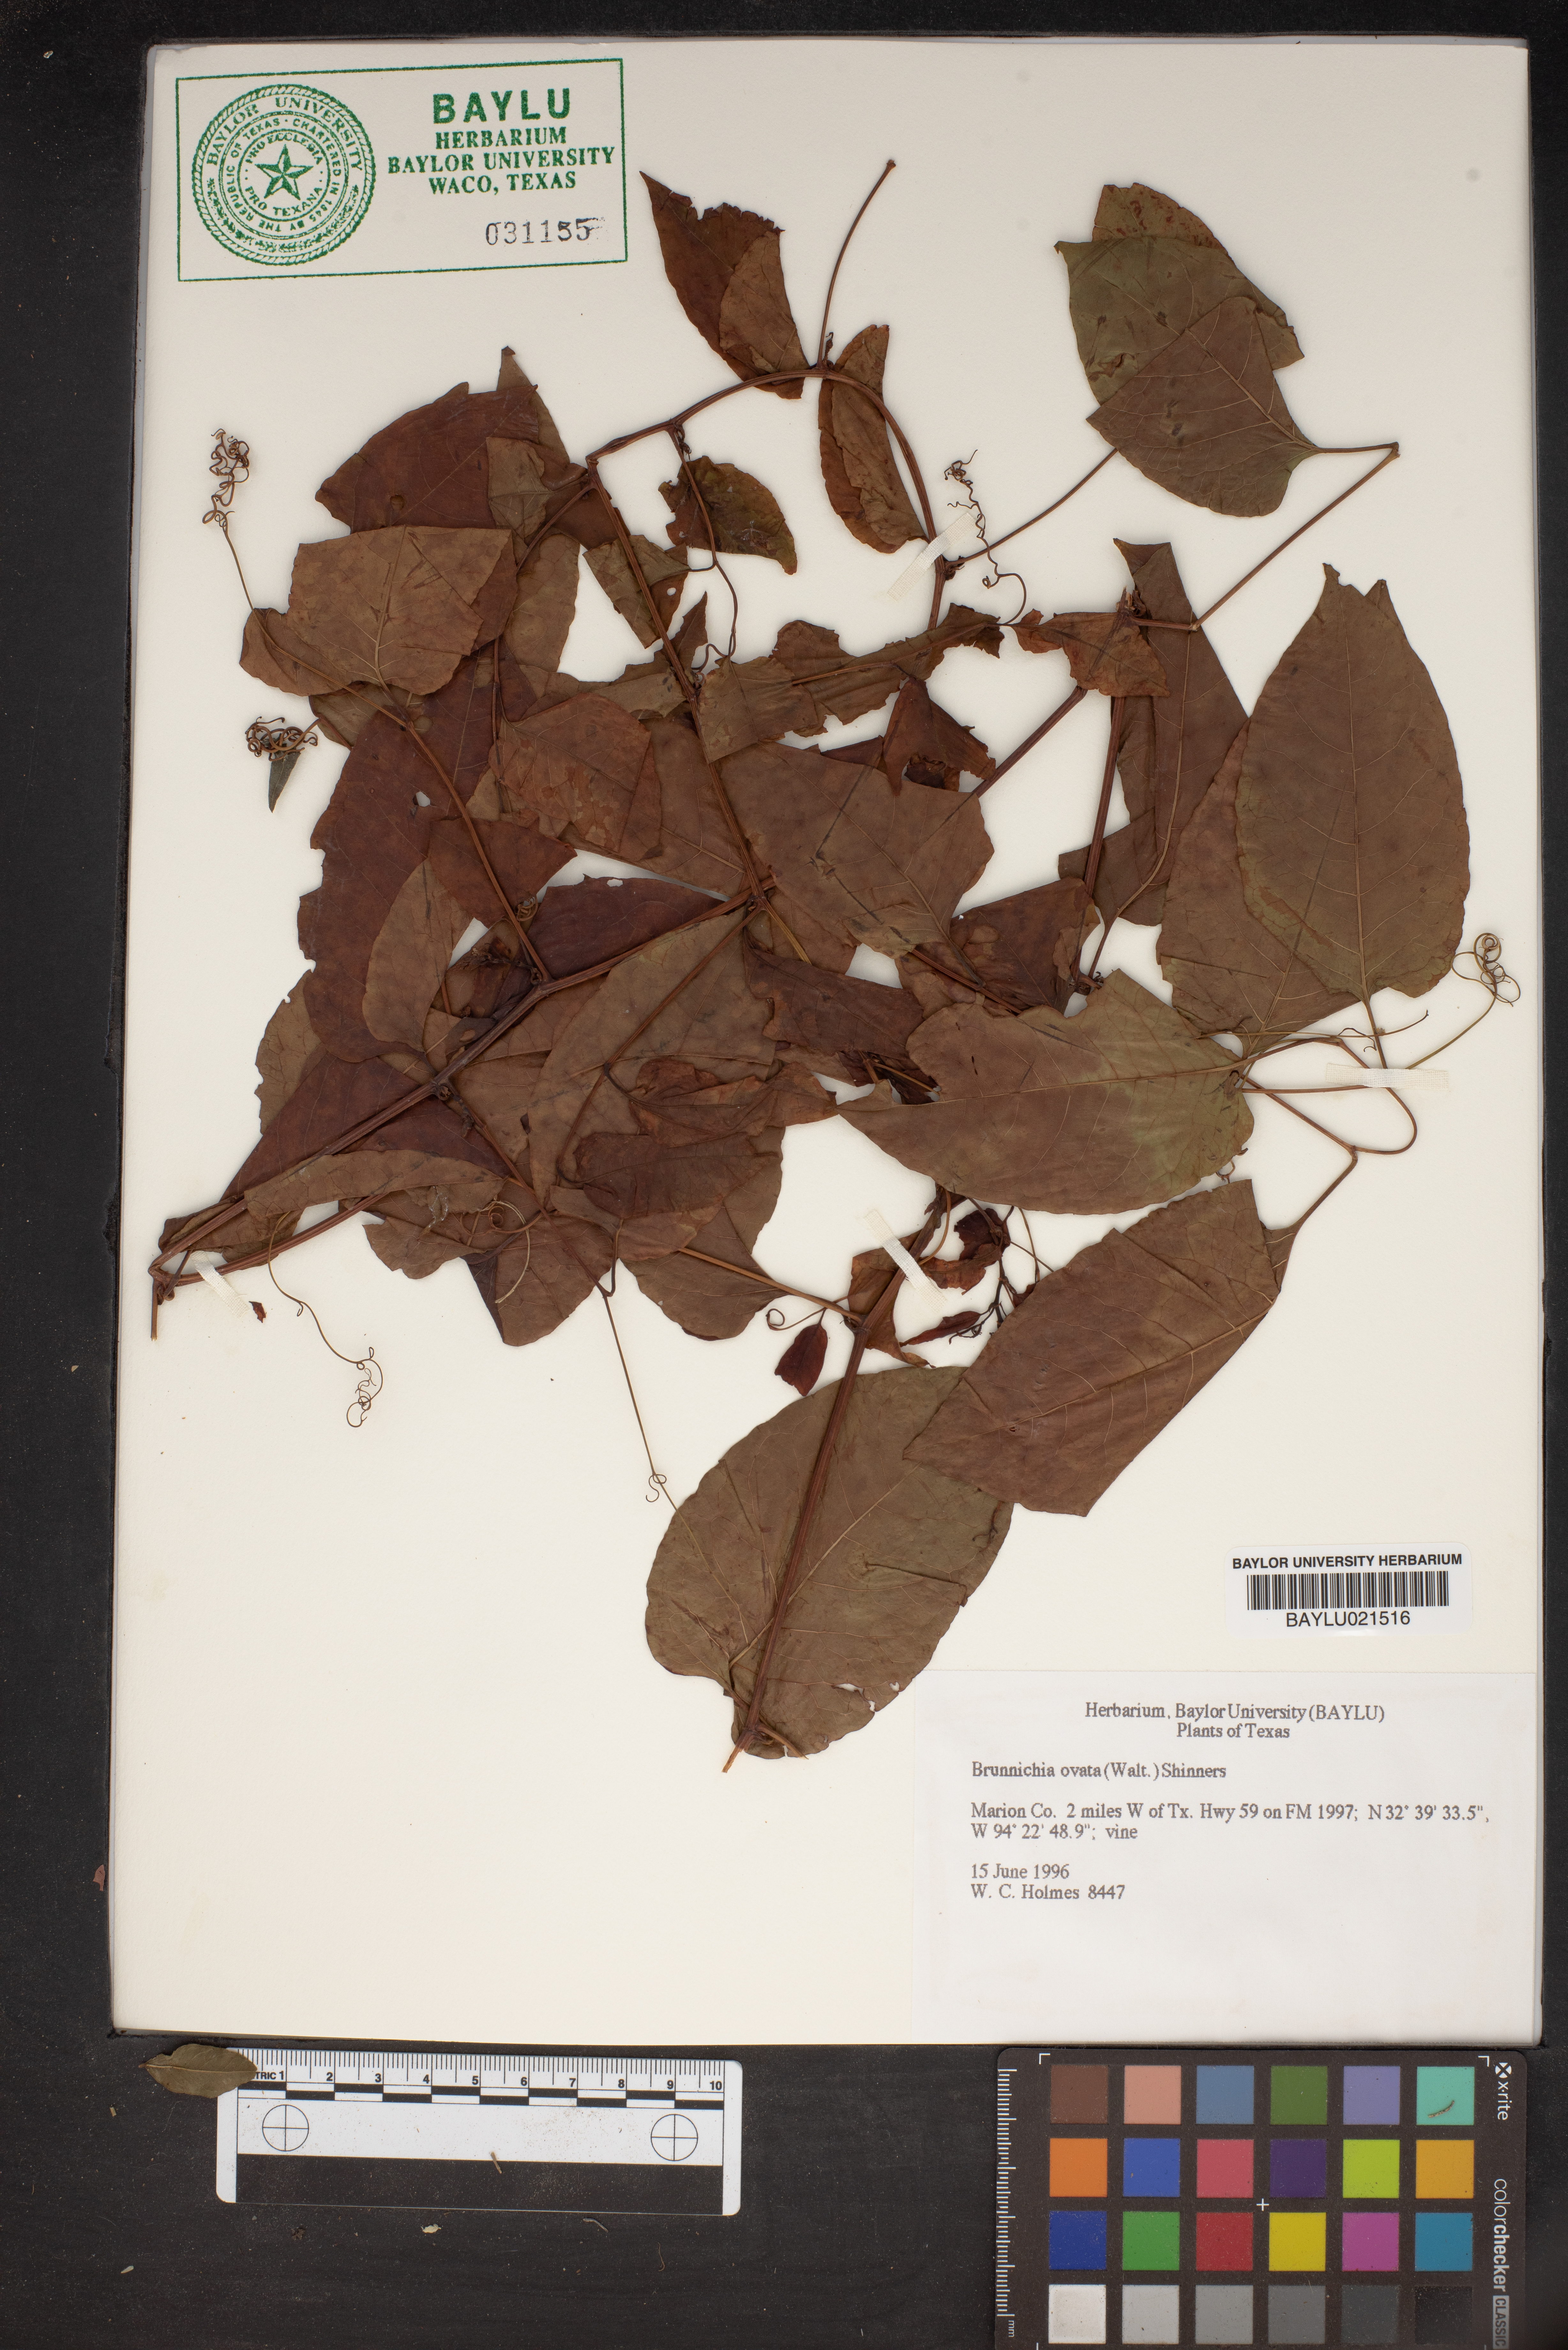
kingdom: Plantae
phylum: Tracheophyta
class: Magnoliopsida
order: Caryophyllales
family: Polygonaceae
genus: Brunnichia
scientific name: Brunnichia ovata
